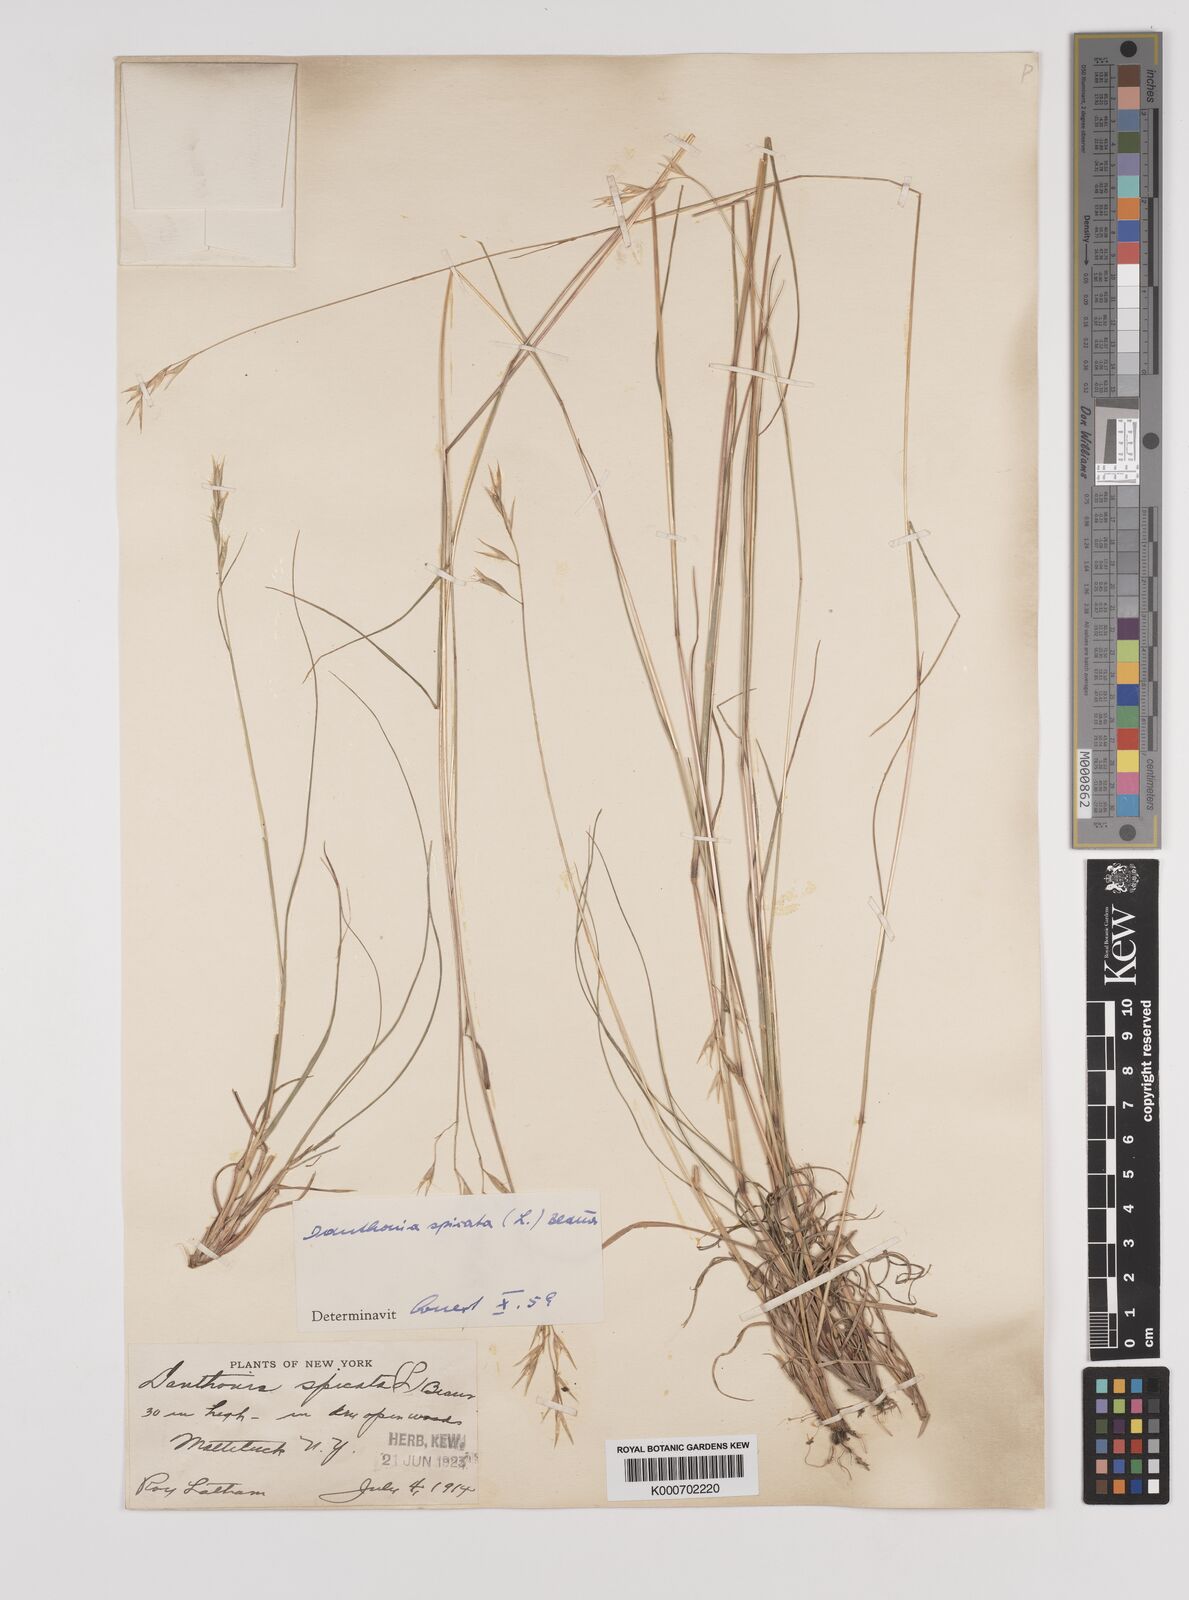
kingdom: Plantae
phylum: Tracheophyta
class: Liliopsida
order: Poales
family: Poaceae
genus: Danthonia
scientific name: Danthonia spicata
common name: Common wild oatgrass
